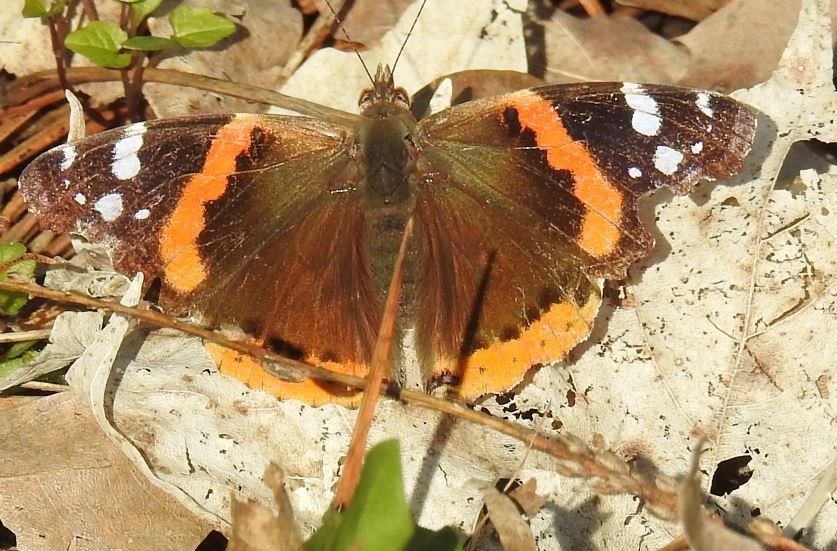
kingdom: Animalia
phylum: Arthropoda
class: Insecta
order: Lepidoptera
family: Nymphalidae
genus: Vanessa
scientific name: Vanessa atalanta
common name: Red Admiral
